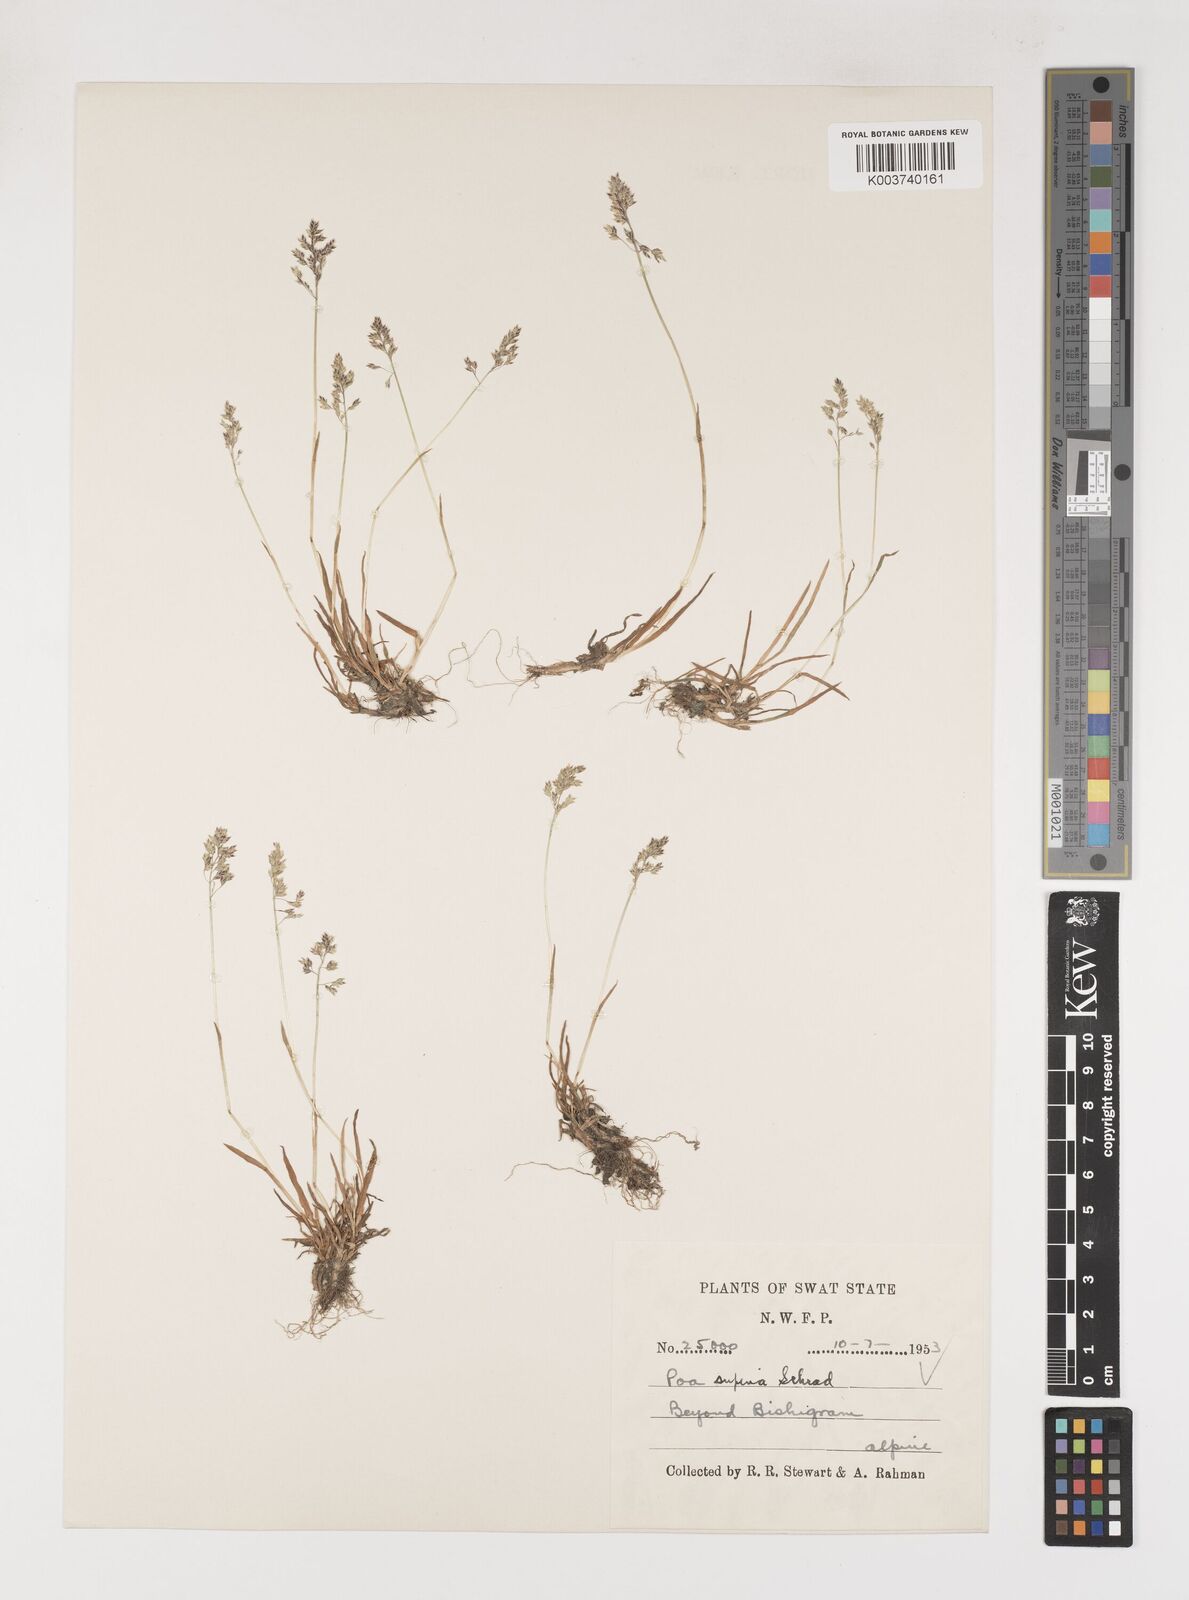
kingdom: Plantae
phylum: Tracheophyta
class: Liliopsida
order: Poales
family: Poaceae
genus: Poa
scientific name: Poa supina
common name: Supina bluegrass
